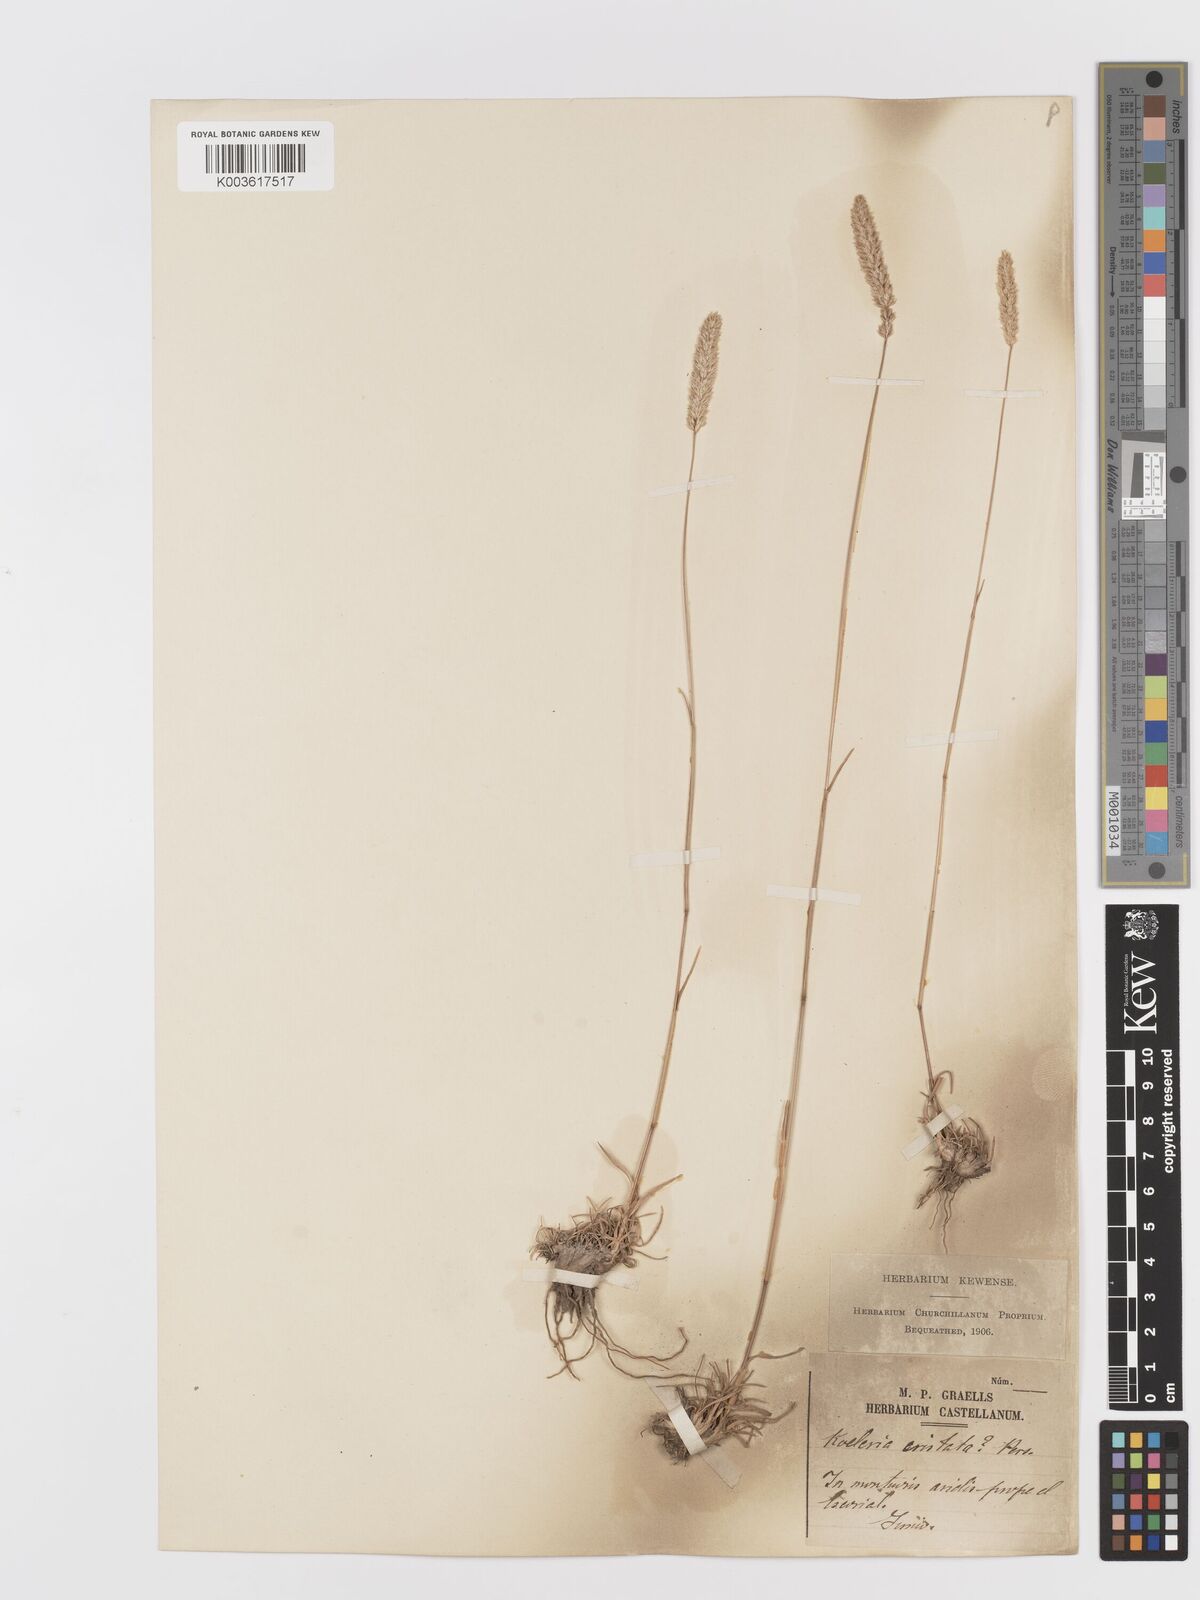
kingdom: Plantae
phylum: Tracheophyta
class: Liliopsida
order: Poales
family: Poaceae
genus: Koeleria
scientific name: Koeleria
